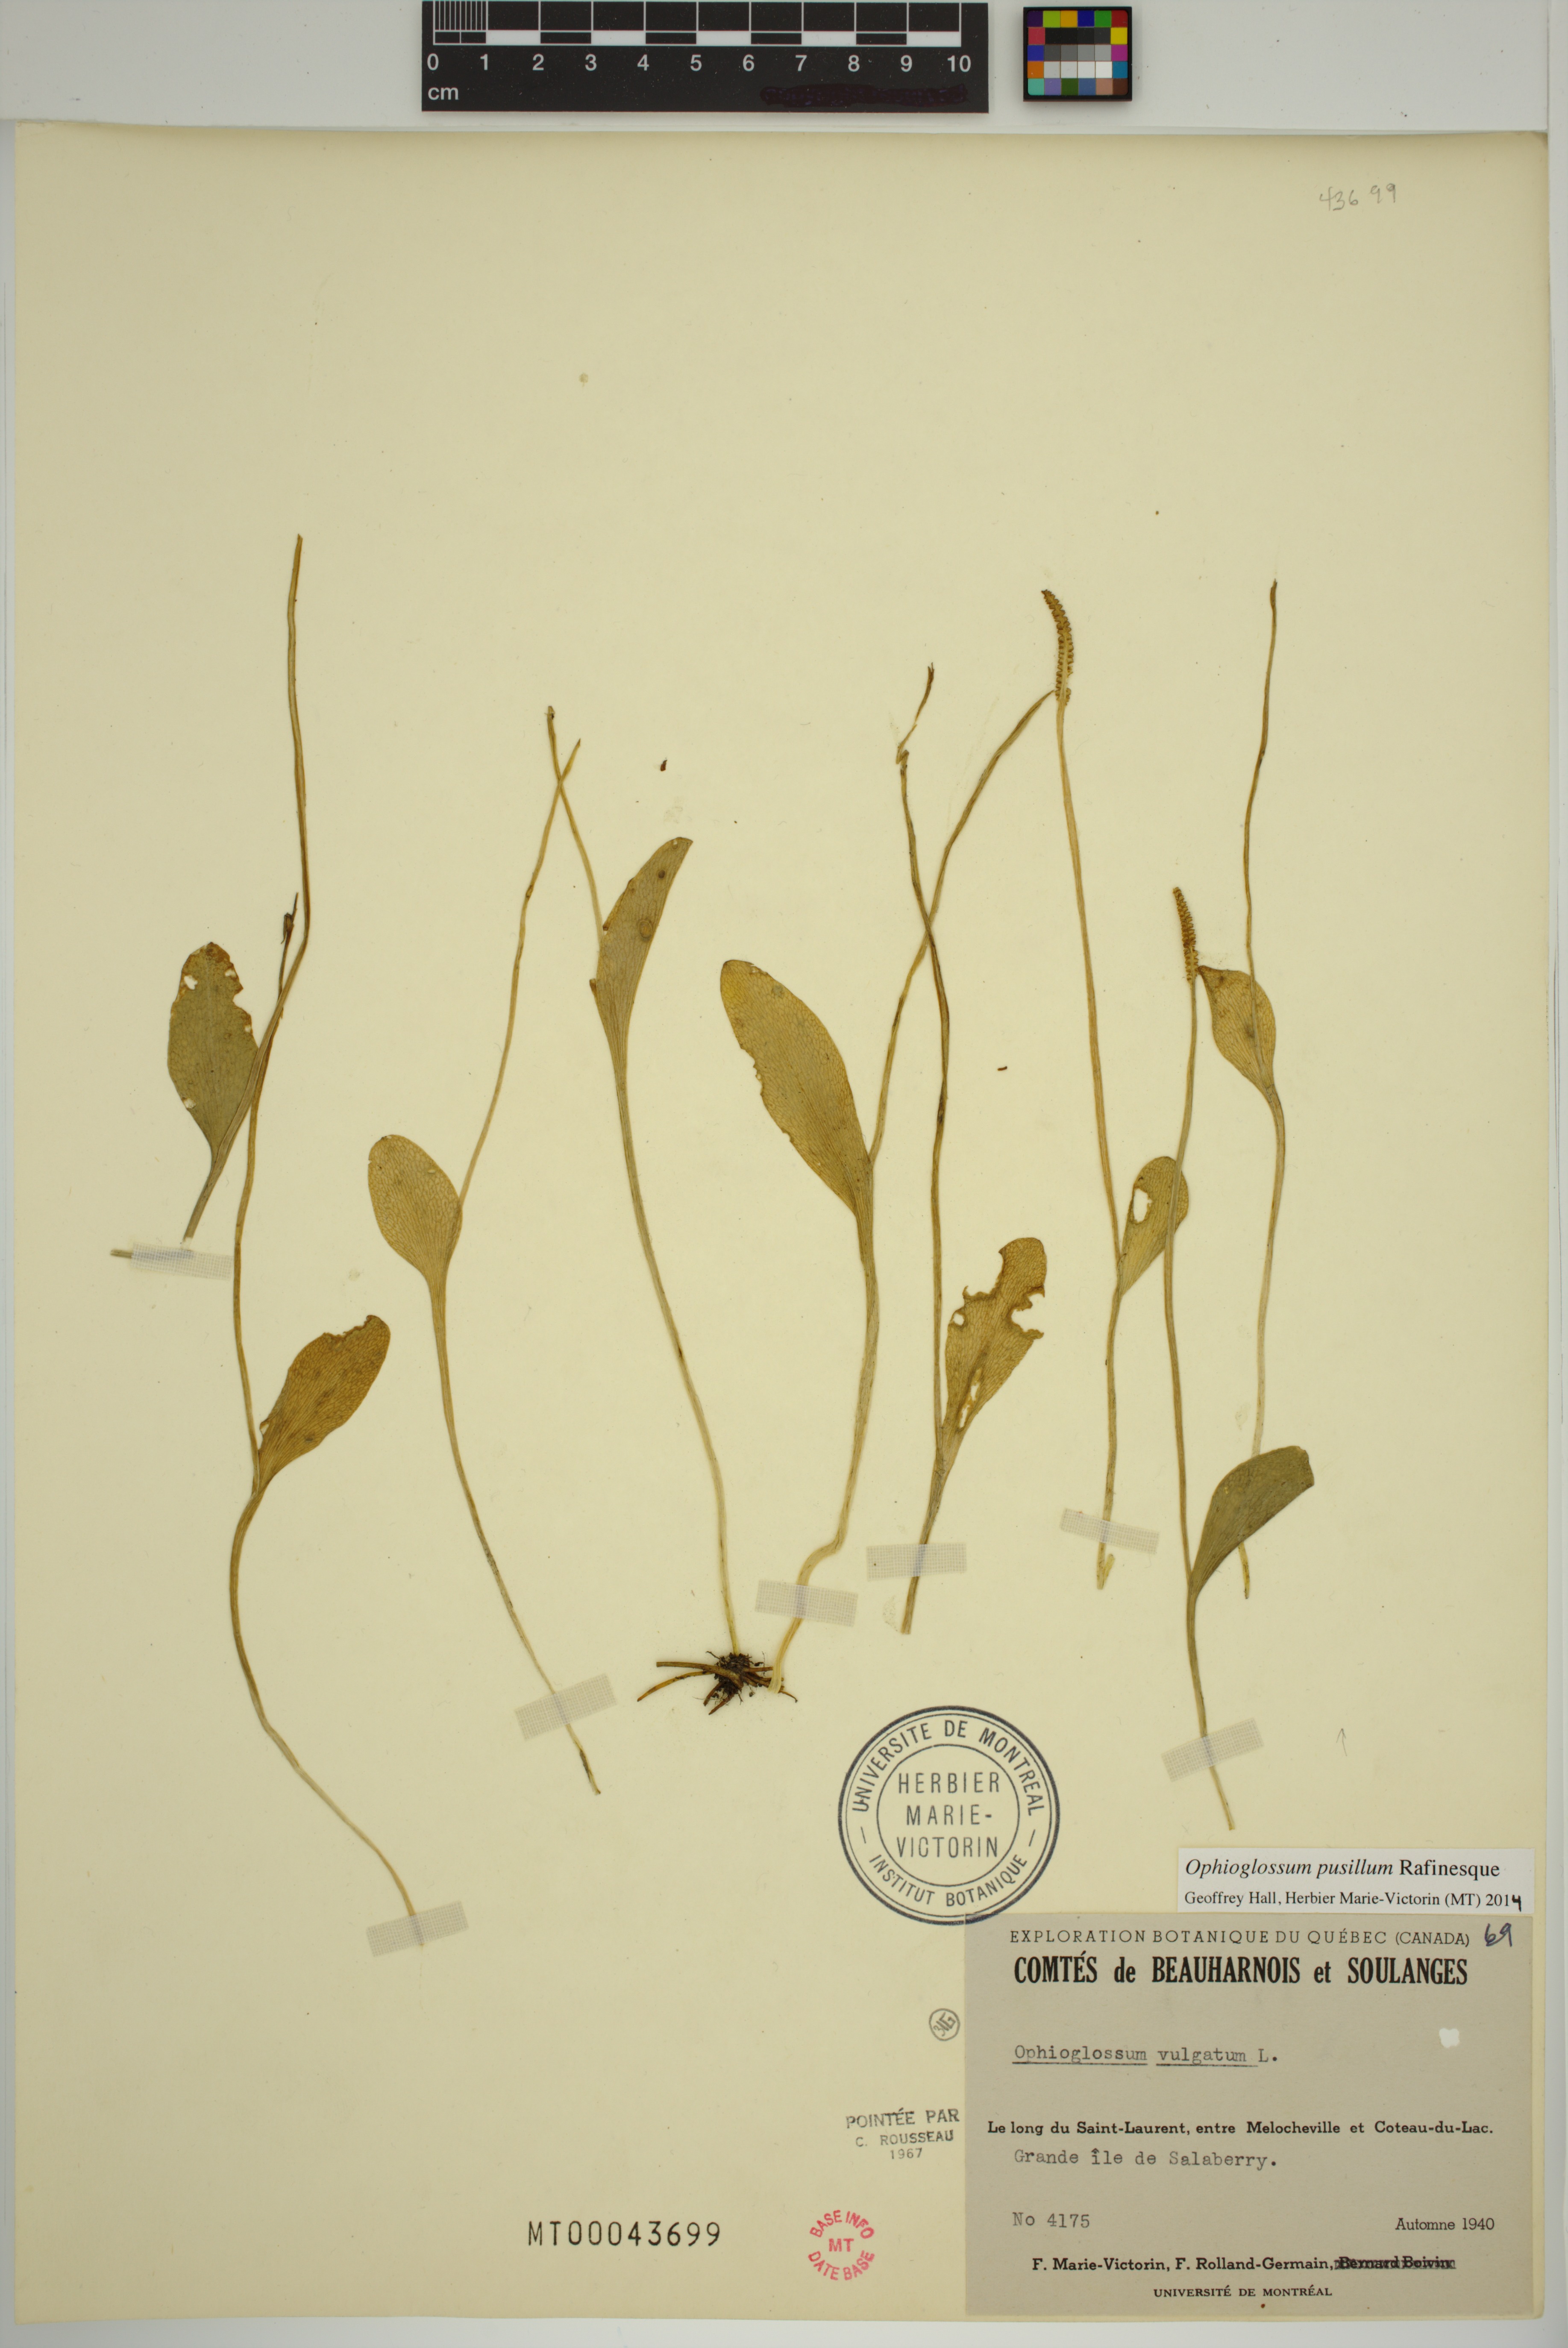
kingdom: Plantae
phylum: Tracheophyta
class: Polypodiopsida
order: Ophioglossales
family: Ophioglossaceae
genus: Ophioglossum
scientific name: Ophioglossum pusillum
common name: Northern adder's-tongue
